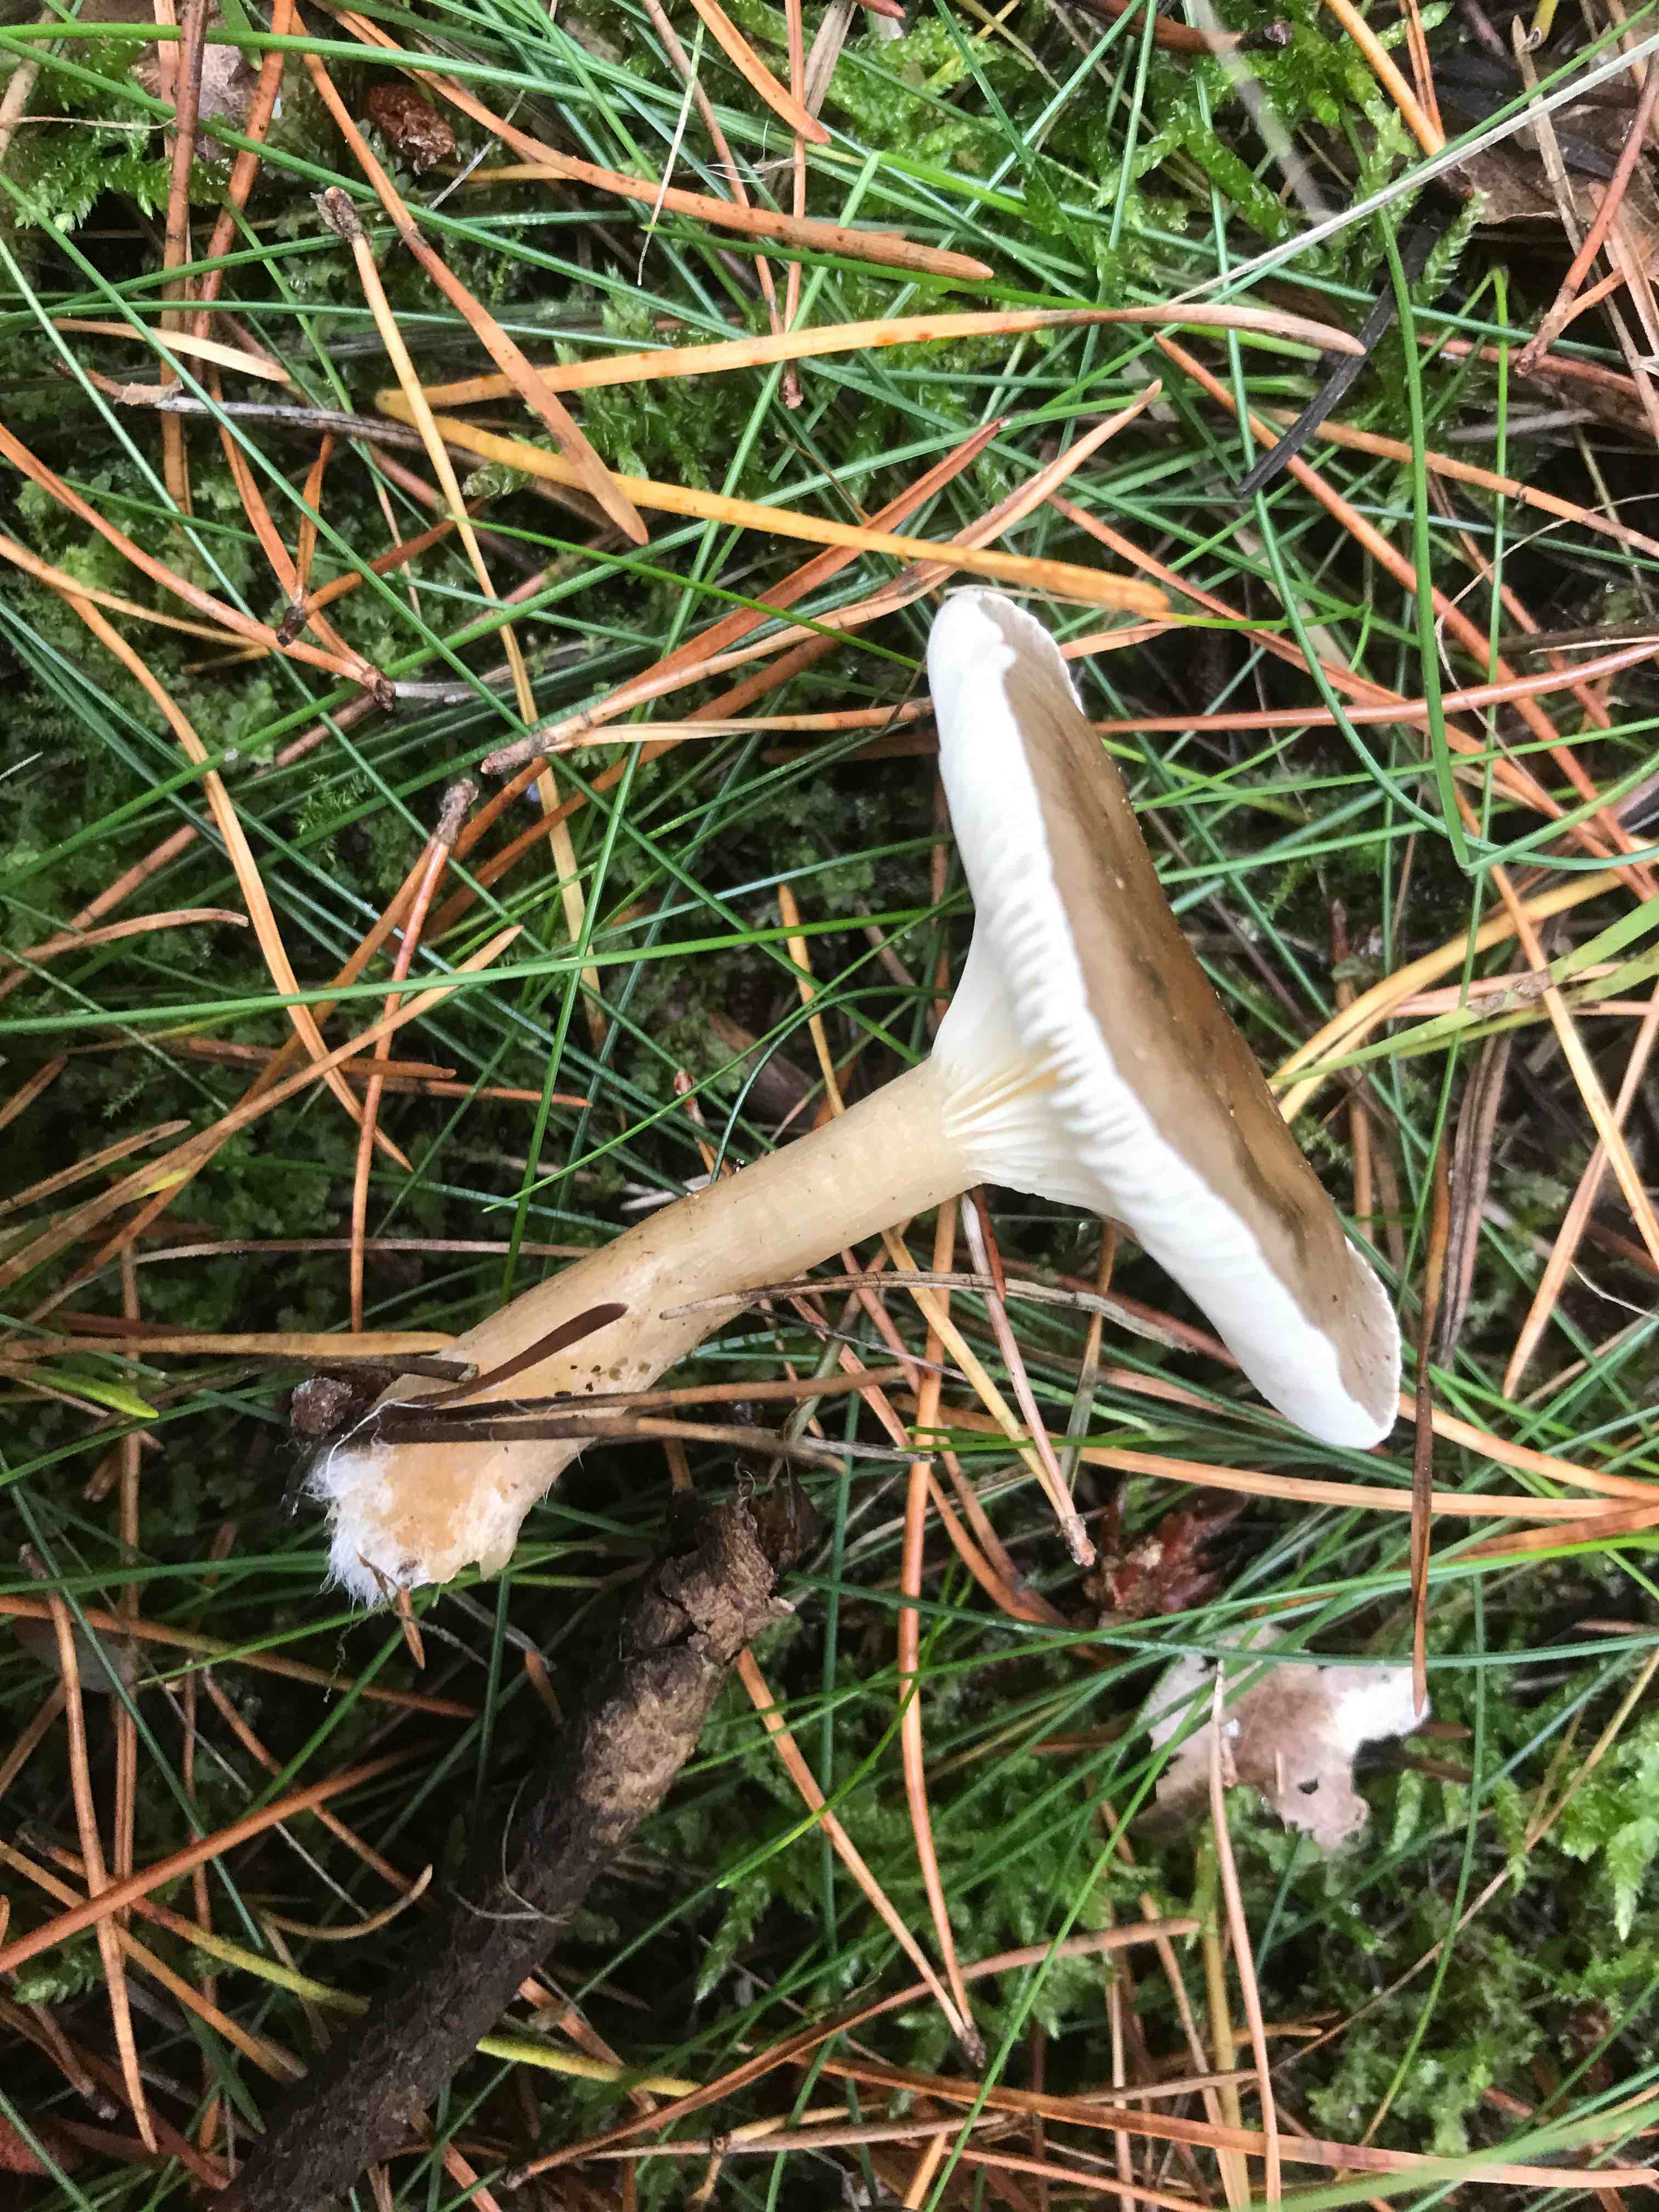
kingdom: Fungi
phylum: Basidiomycota
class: Agaricomycetes
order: Agaricales
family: Hygrophoraceae
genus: Ampulloclitocybe
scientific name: Ampulloclitocybe clavipes
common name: køllefod
